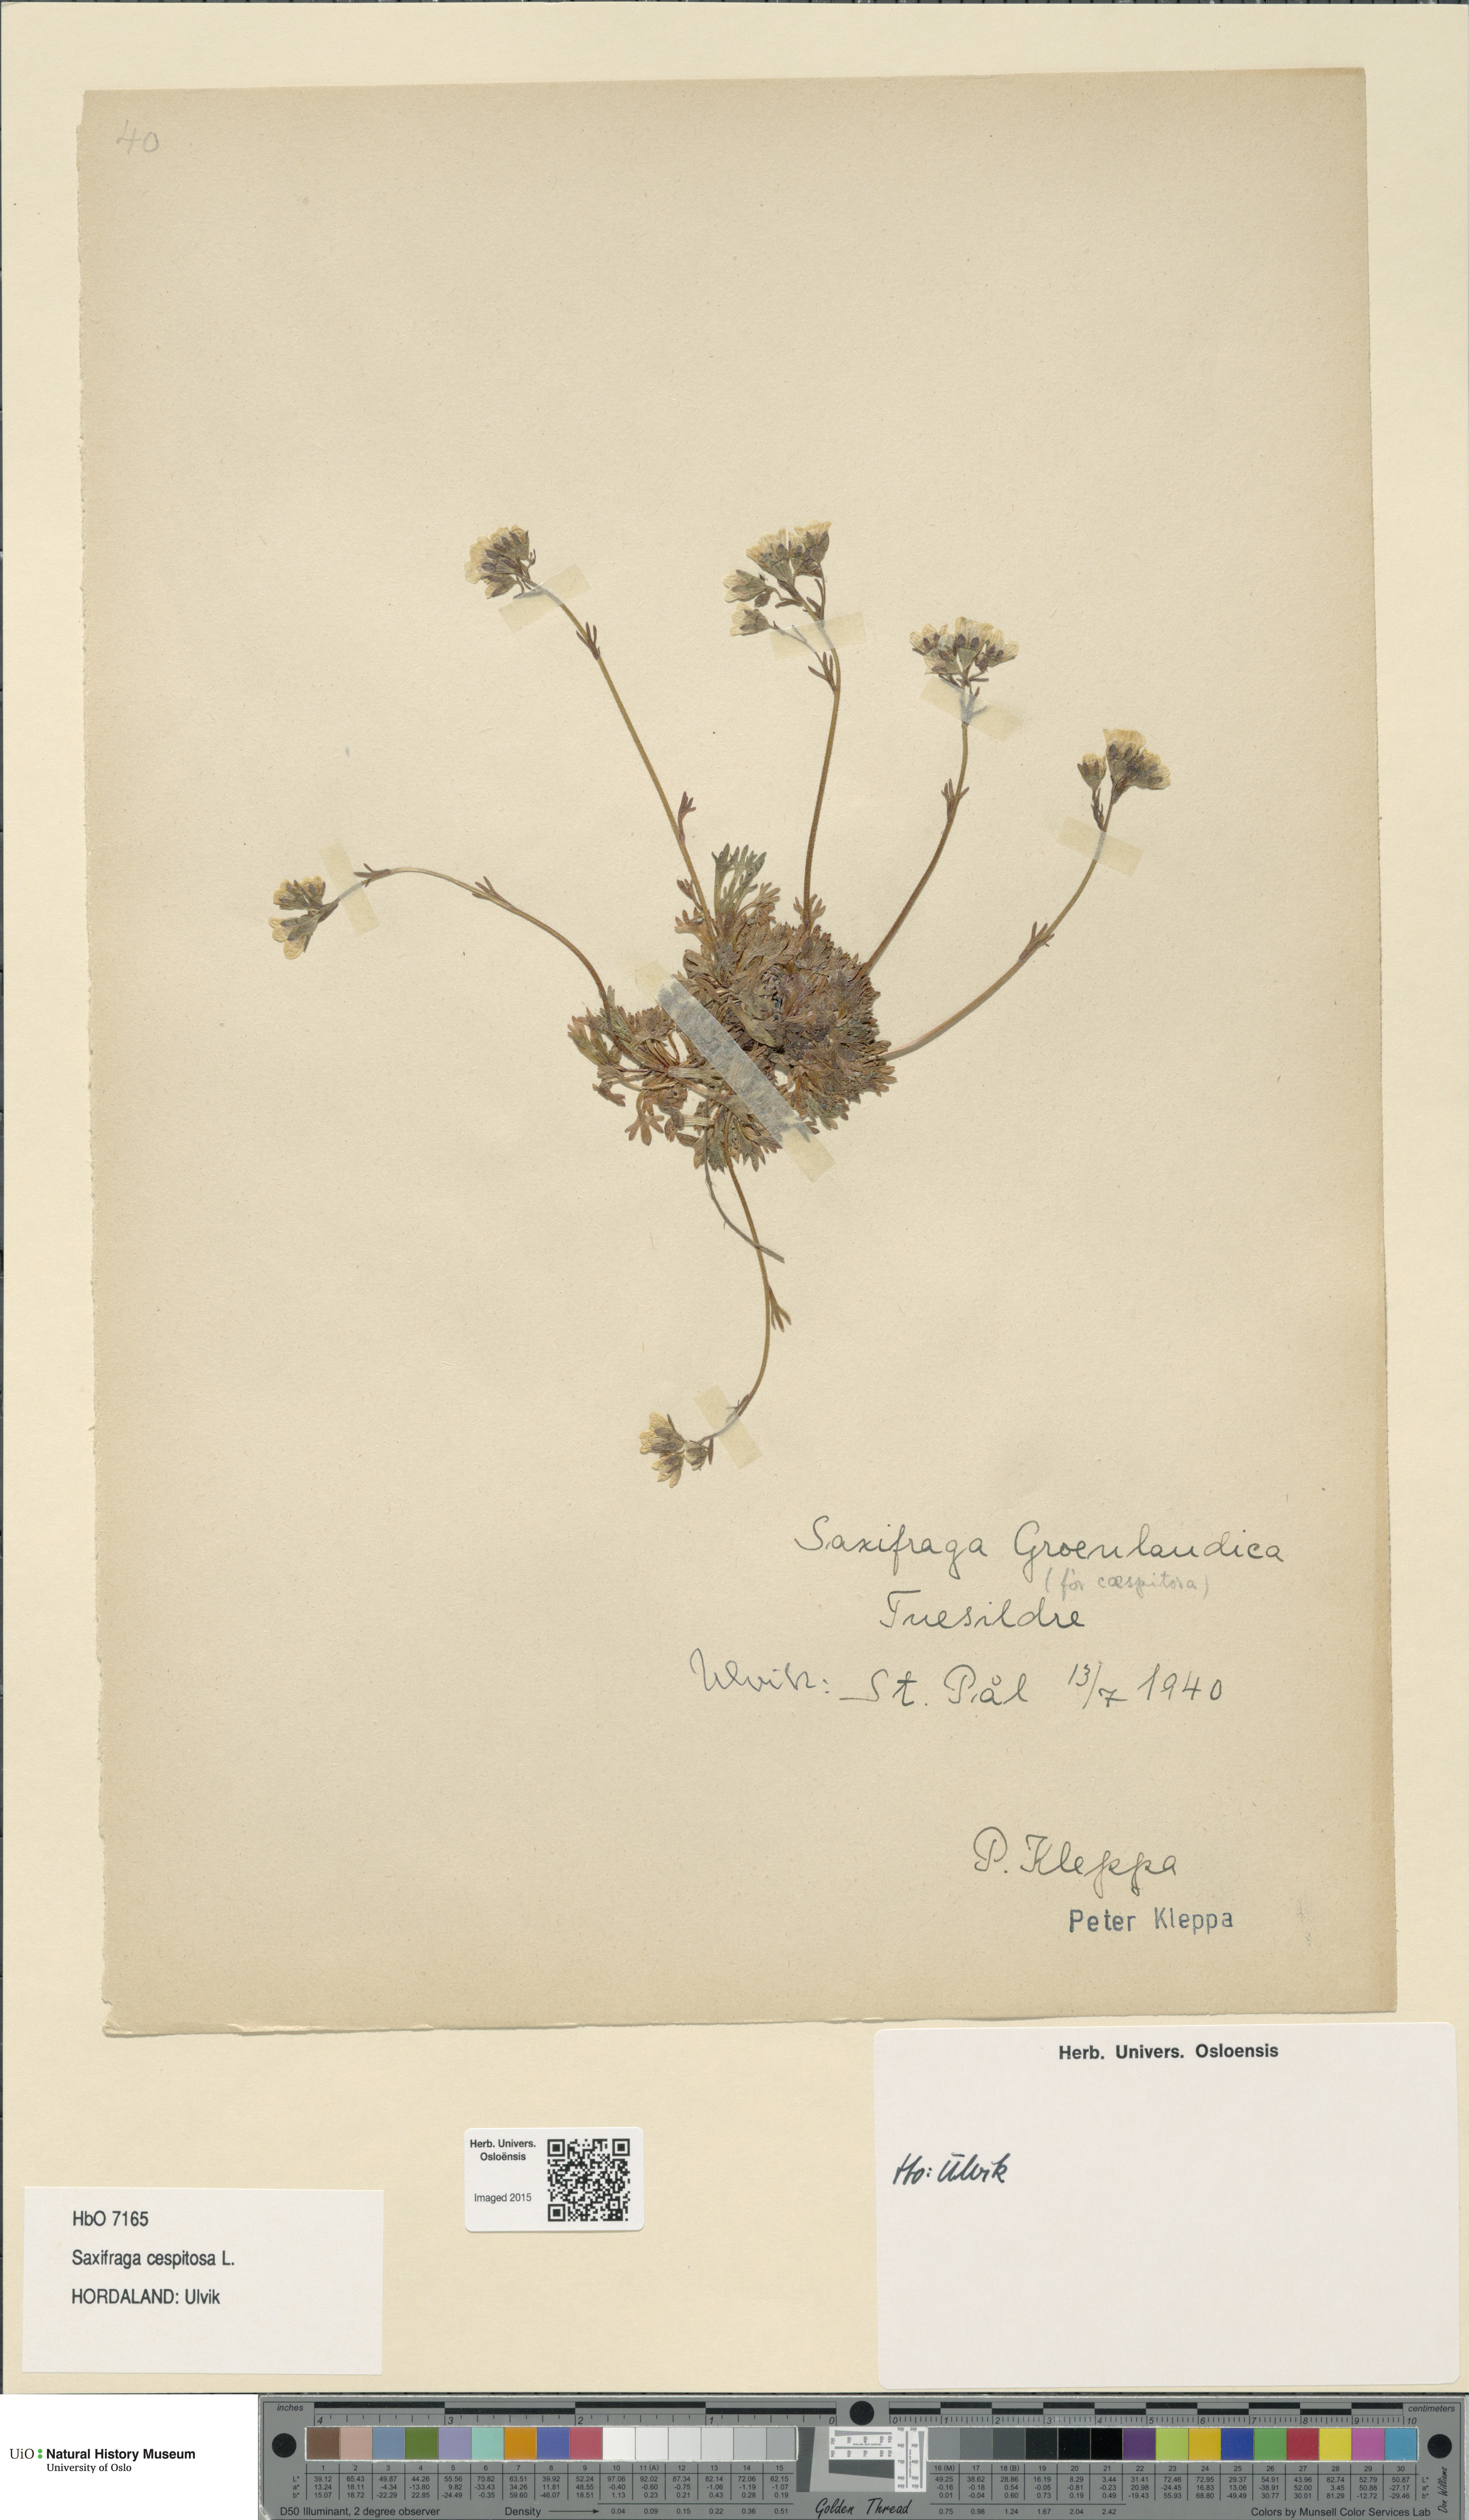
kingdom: Plantae
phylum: Tracheophyta
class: Magnoliopsida
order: Saxifragales
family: Saxifragaceae
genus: Saxifraga
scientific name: Saxifraga cespitosa
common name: Tufted saxifrage
